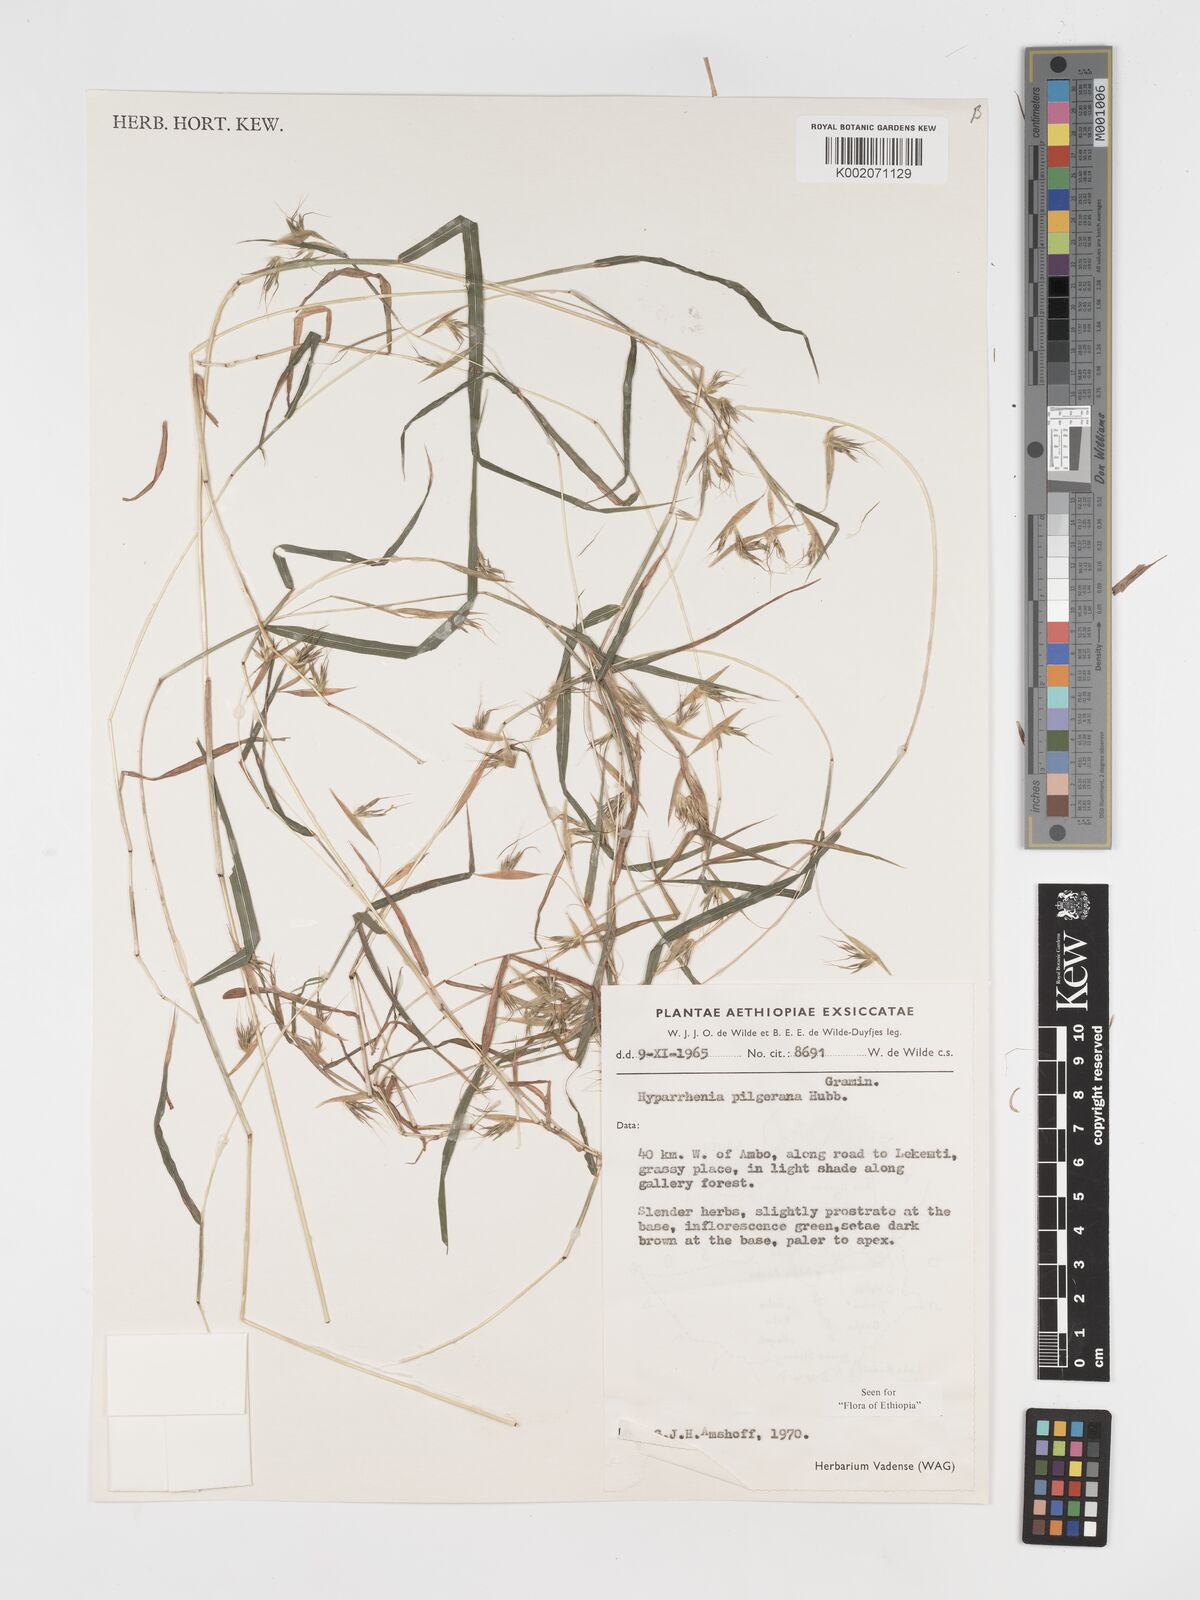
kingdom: Plantae
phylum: Tracheophyta
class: Liliopsida
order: Poales
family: Poaceae
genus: Hyparrhenia
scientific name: Hyparrhenia pilgeriana
